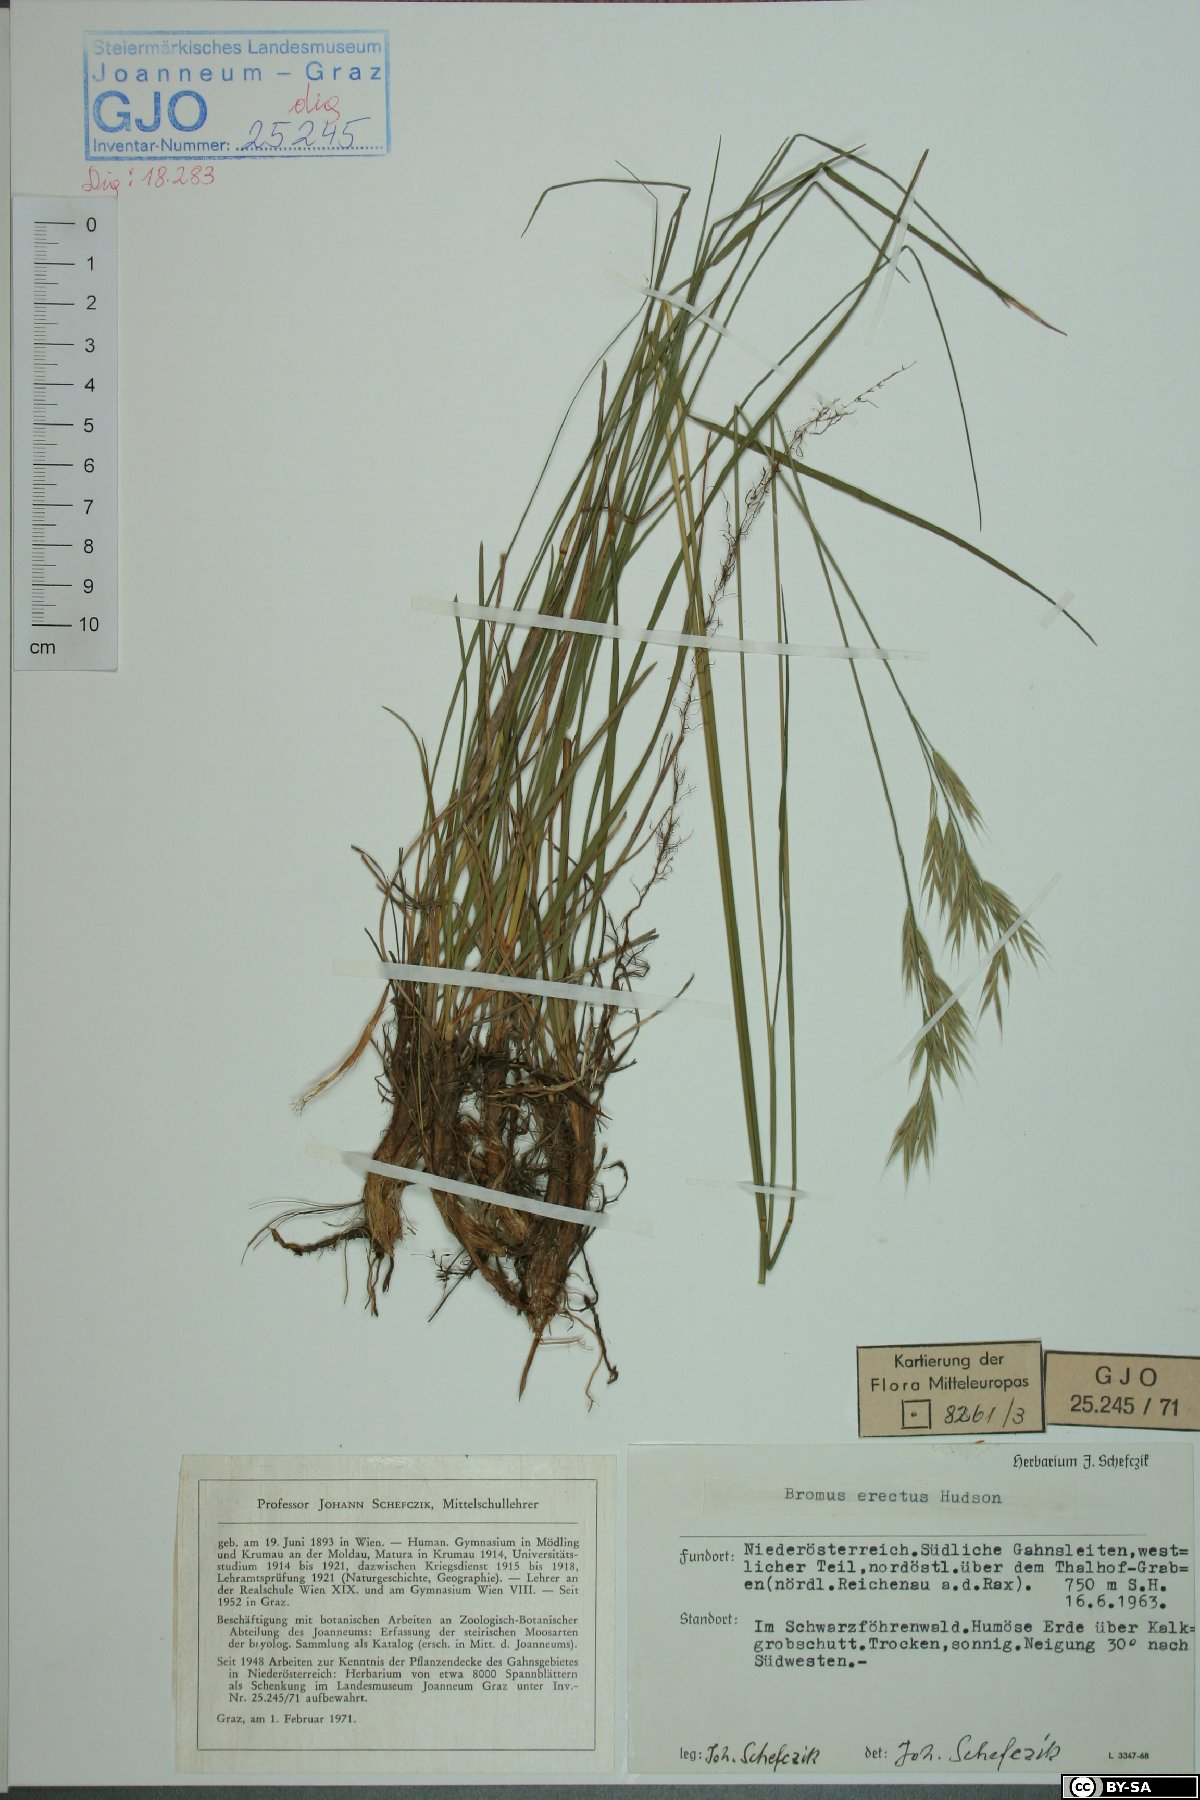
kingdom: Plantae
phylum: Tracheophyta
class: Liliopsida
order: Poales
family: Poaceae
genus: Bromus
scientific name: Bromus erectus
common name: Erect brome
